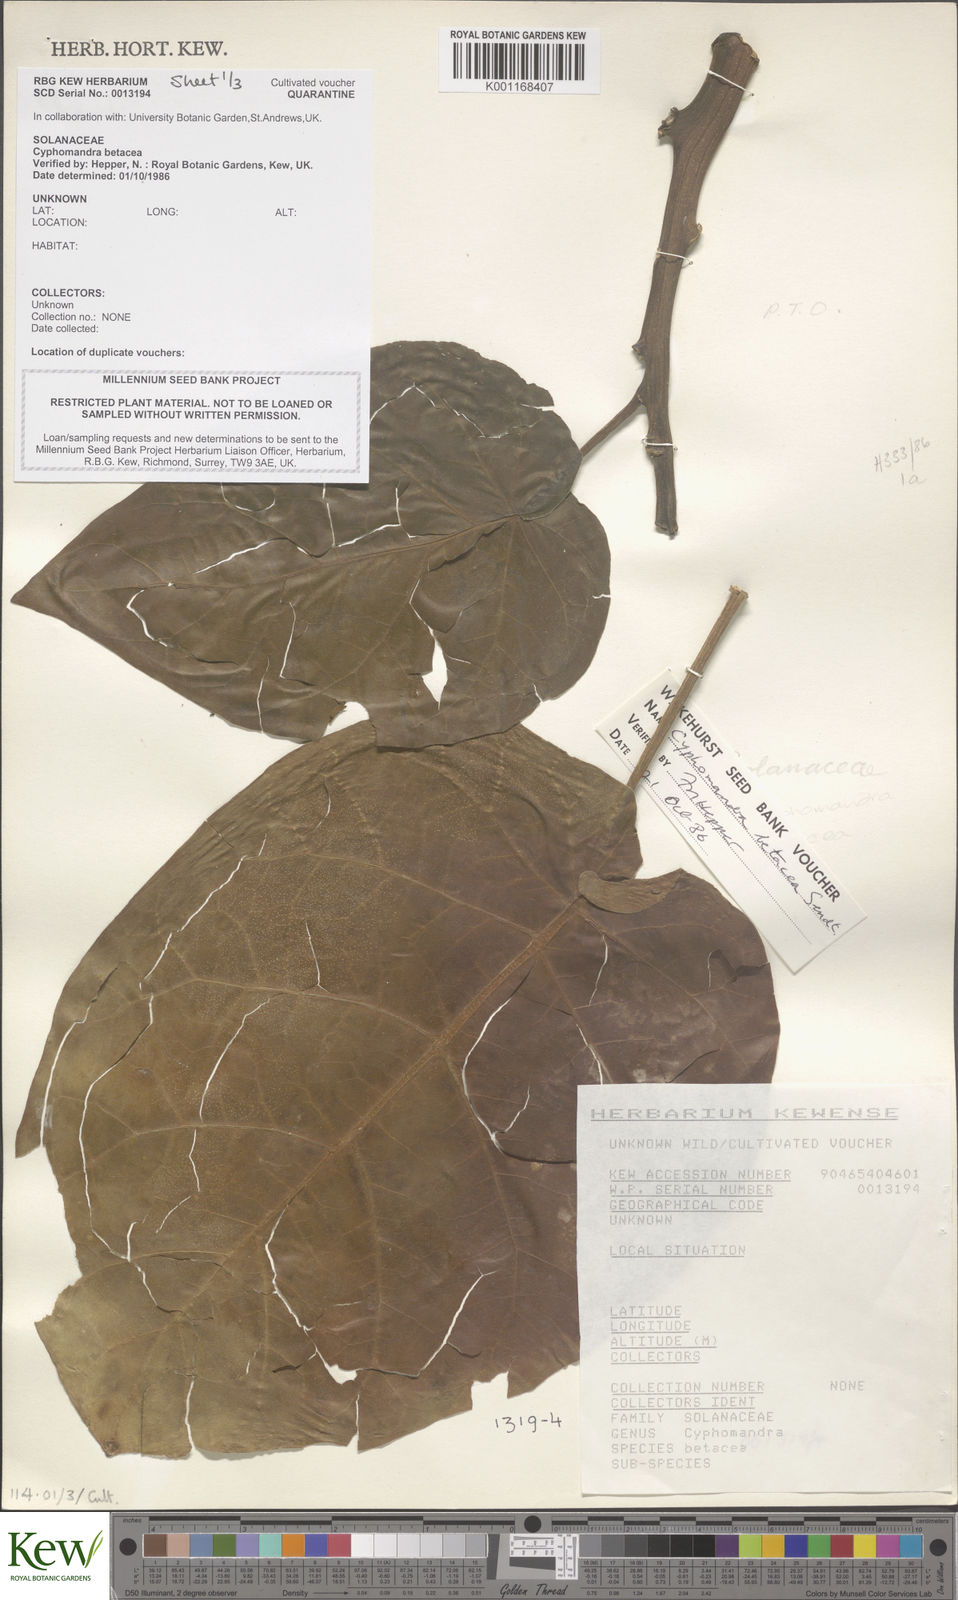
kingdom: Plantae
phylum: Tracheophyta
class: Magnoliopsida
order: Solanales
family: Solanaceae
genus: Solanum
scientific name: Solanum betaceum
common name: Tamarillo
